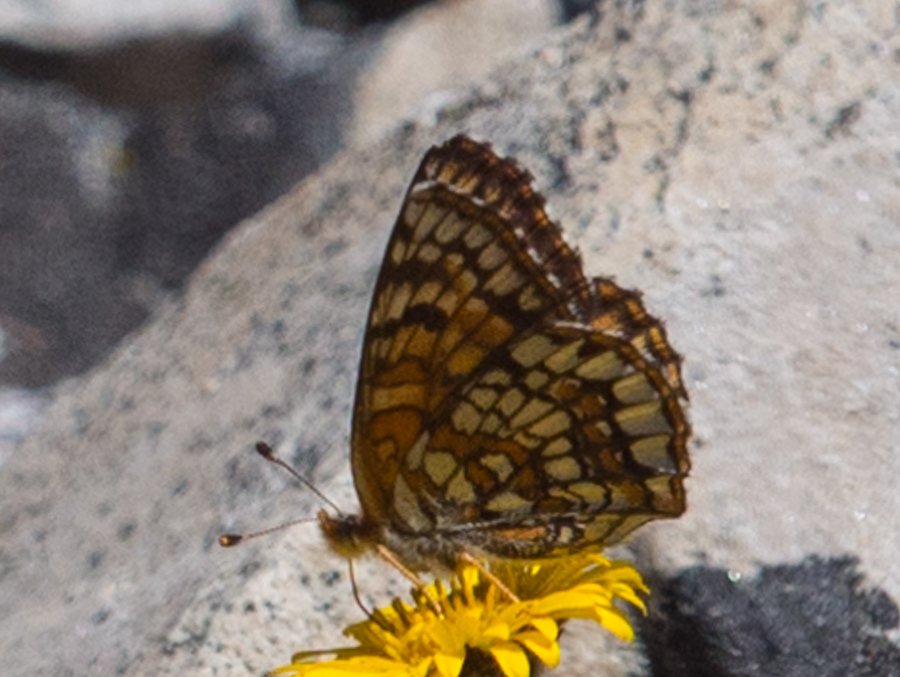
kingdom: Animalia
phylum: Arthropoda
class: Insecta
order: Lepidoptera
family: Nymphalidae
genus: Chlosyne
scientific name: Chlosyne damoetas
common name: Rockslide Checkerspot
